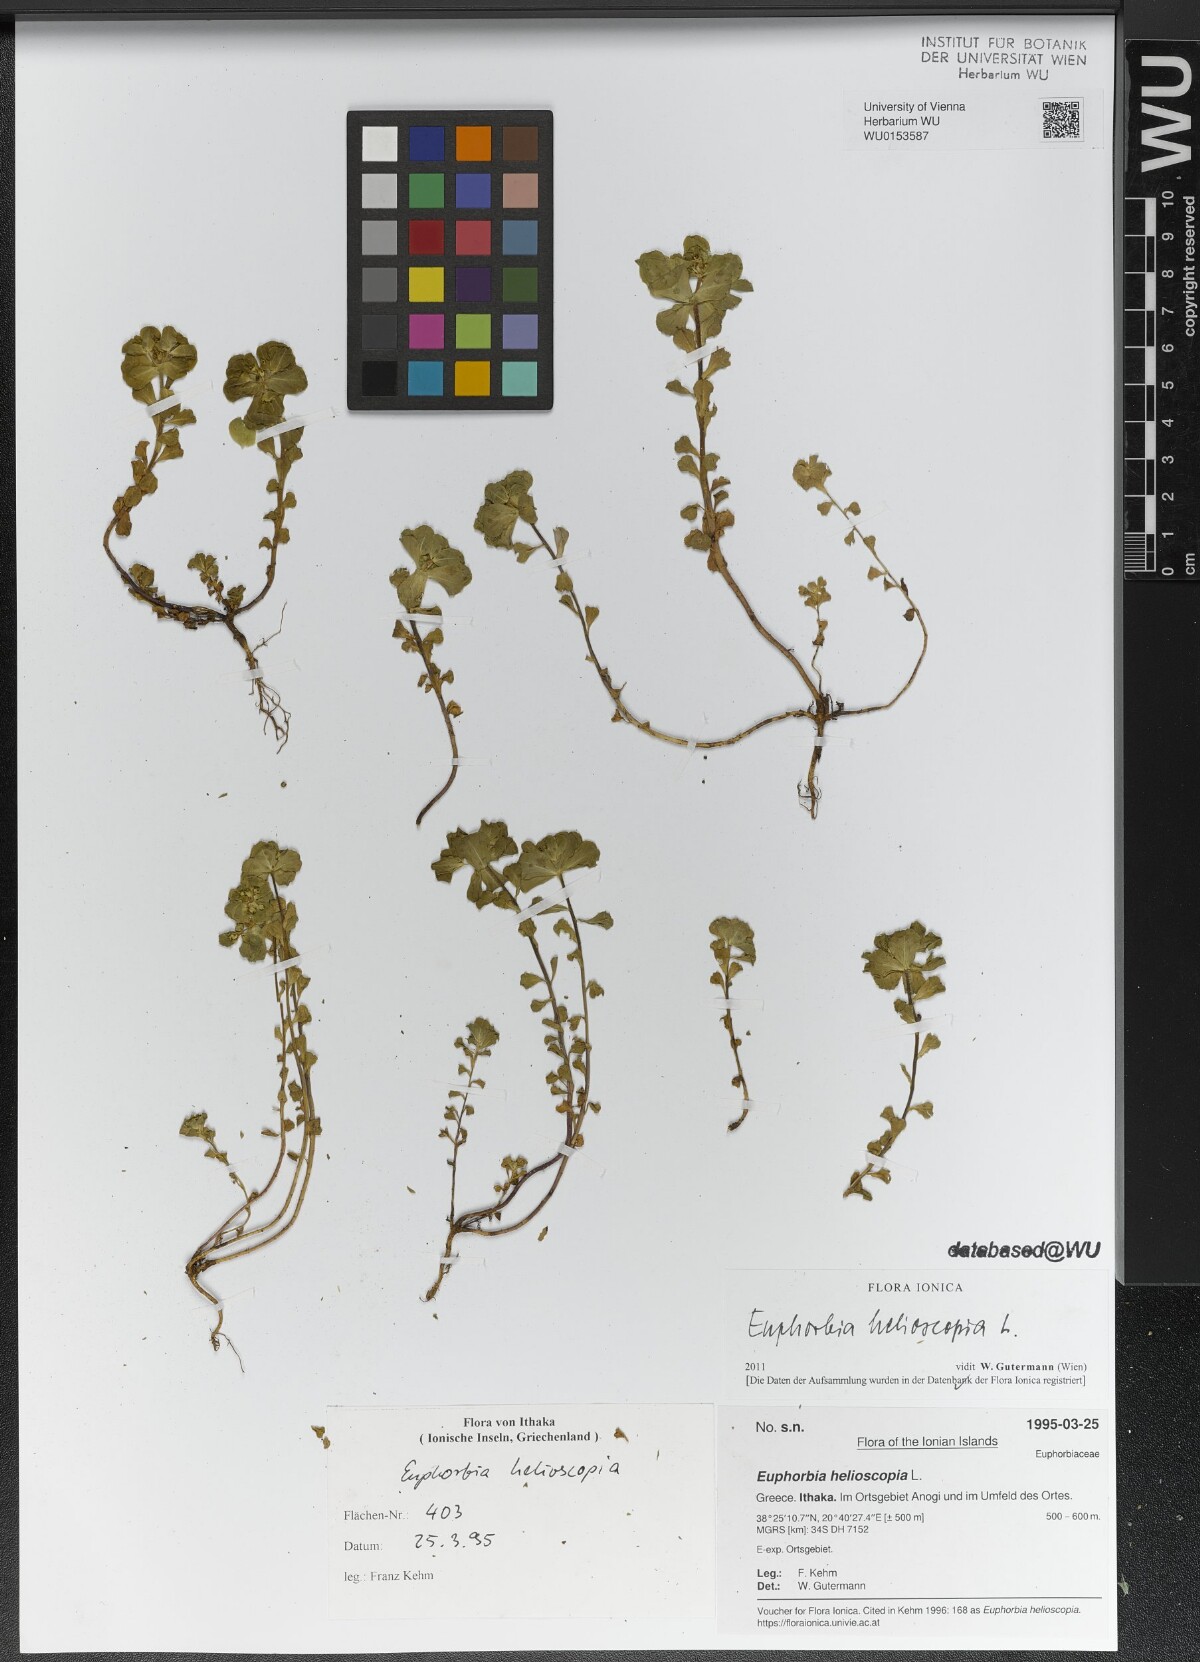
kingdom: Plantae
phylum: Tracheophyta
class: Magnoliopsida
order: Malpighiales
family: Euphorbiaceae
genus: Euphorbia
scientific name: Euphorbia helioscopia
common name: Sun spurge
